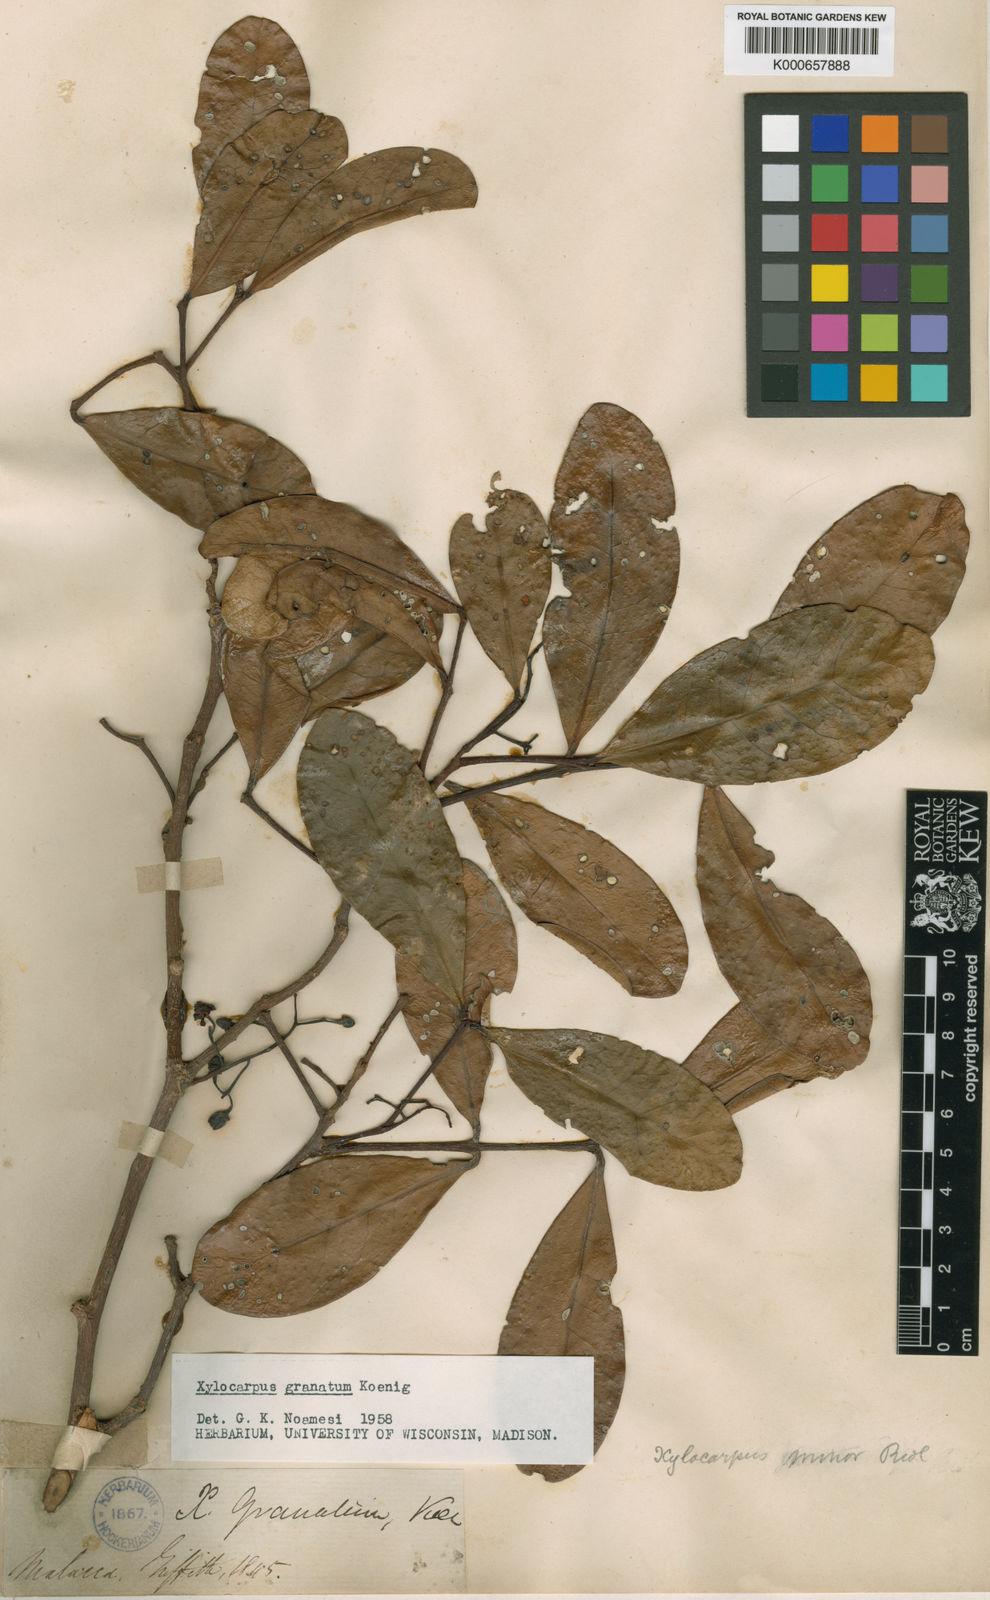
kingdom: Plantae
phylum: Tracheophyta
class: Magnoliopsida
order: Sapindales
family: Meliaceae
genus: Xylocarpus
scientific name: Xylocarpus granatum
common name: Apple mangrove
